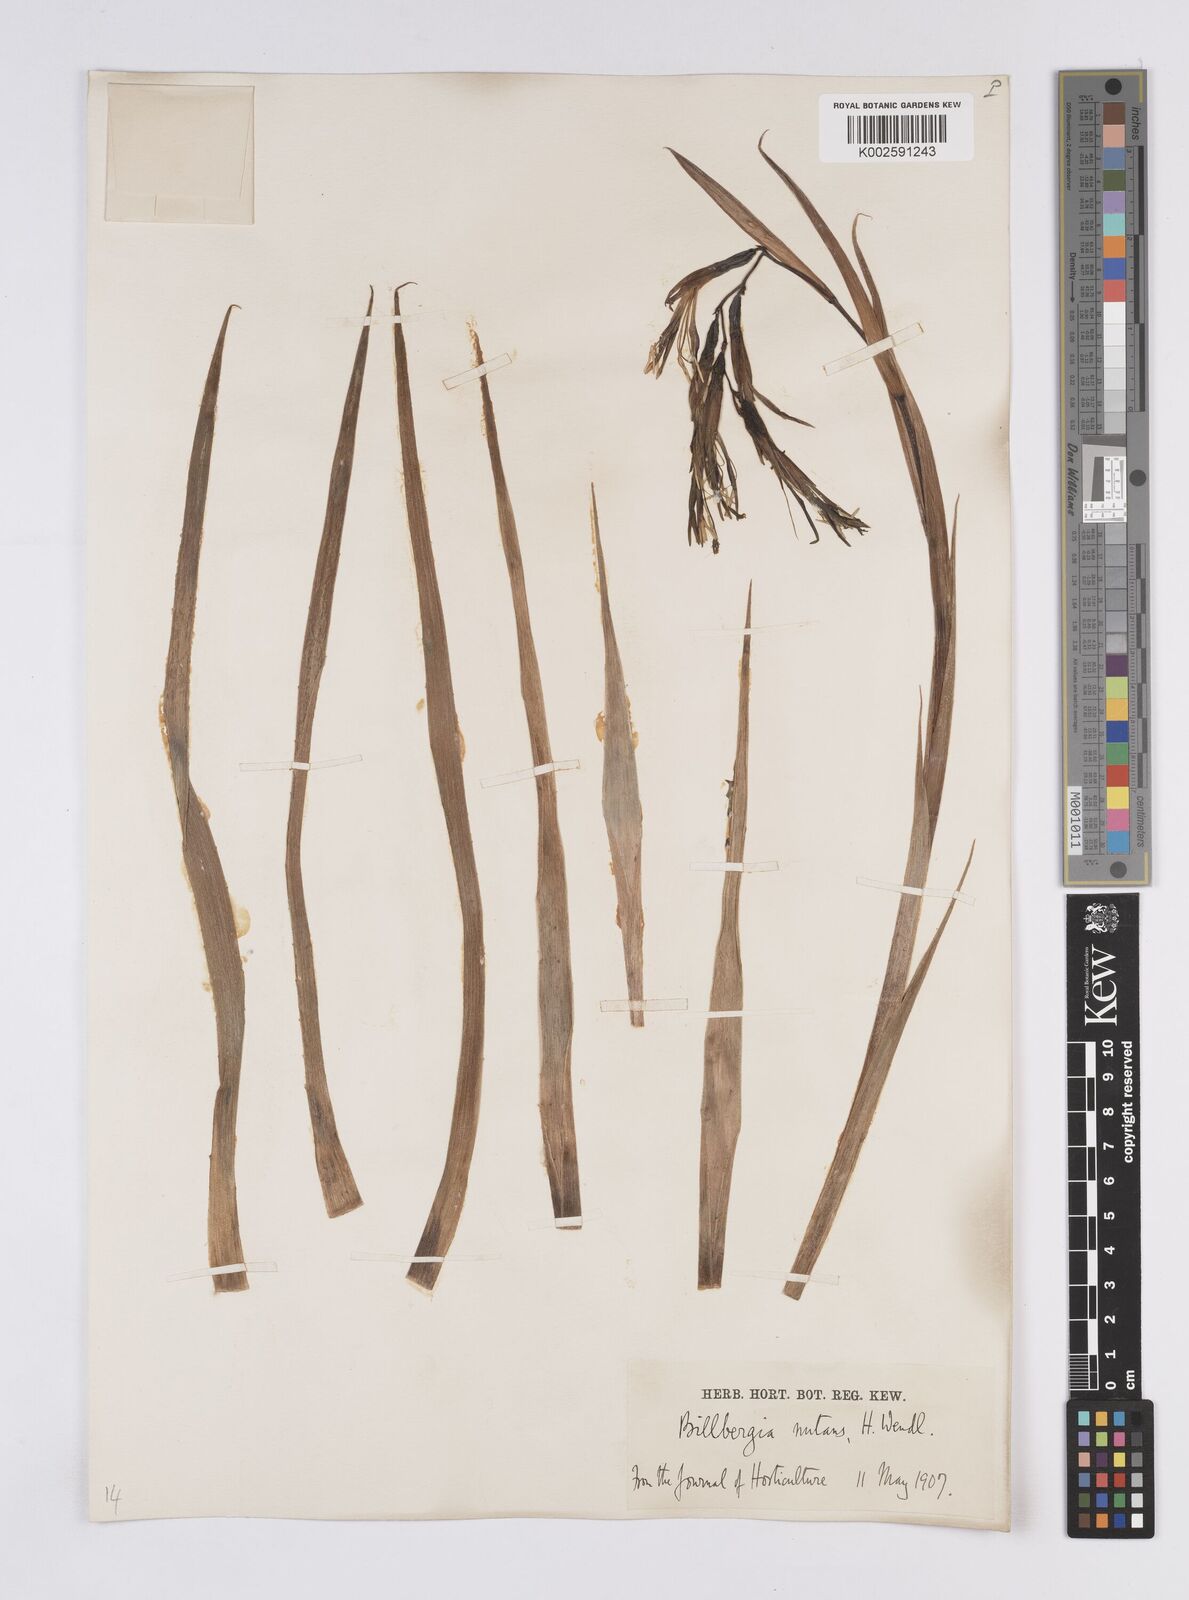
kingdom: Plantae
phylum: Tracheophyta
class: Liliopsida
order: Poales
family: Bromeliaceae
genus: Billbergia
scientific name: Billbergia nutans
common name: Friendship-plant
